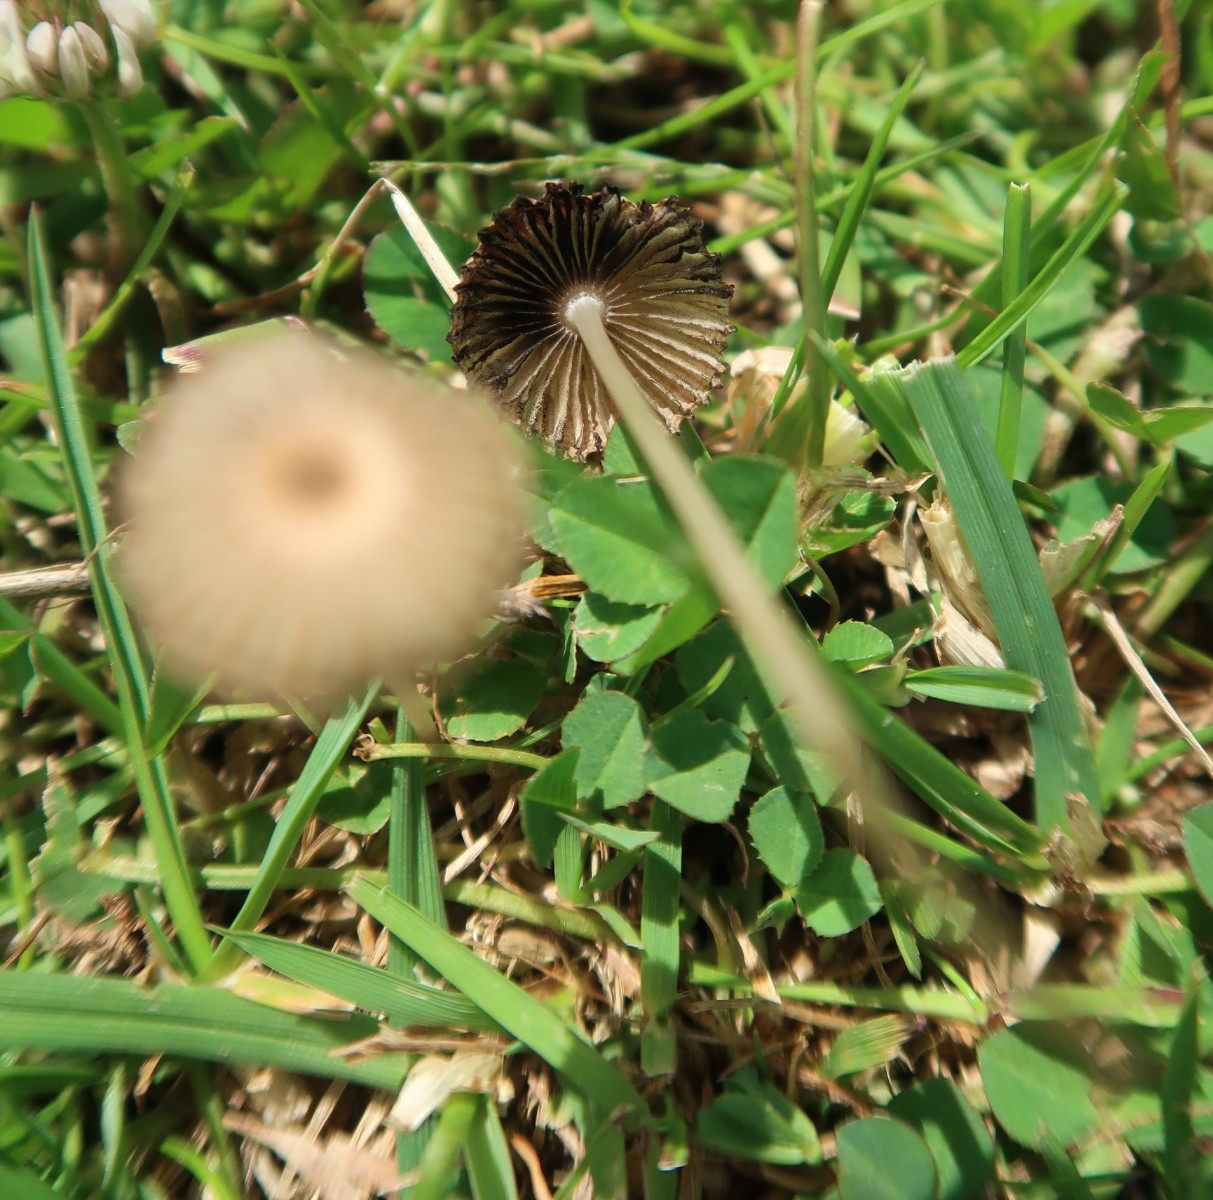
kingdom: Fungi
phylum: Basidiomycota
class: Agaricomycetes
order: Agaricales
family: Psathyrellaceae
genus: Parasola
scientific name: Parasola schroeteri
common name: bredsporet hjulhat
